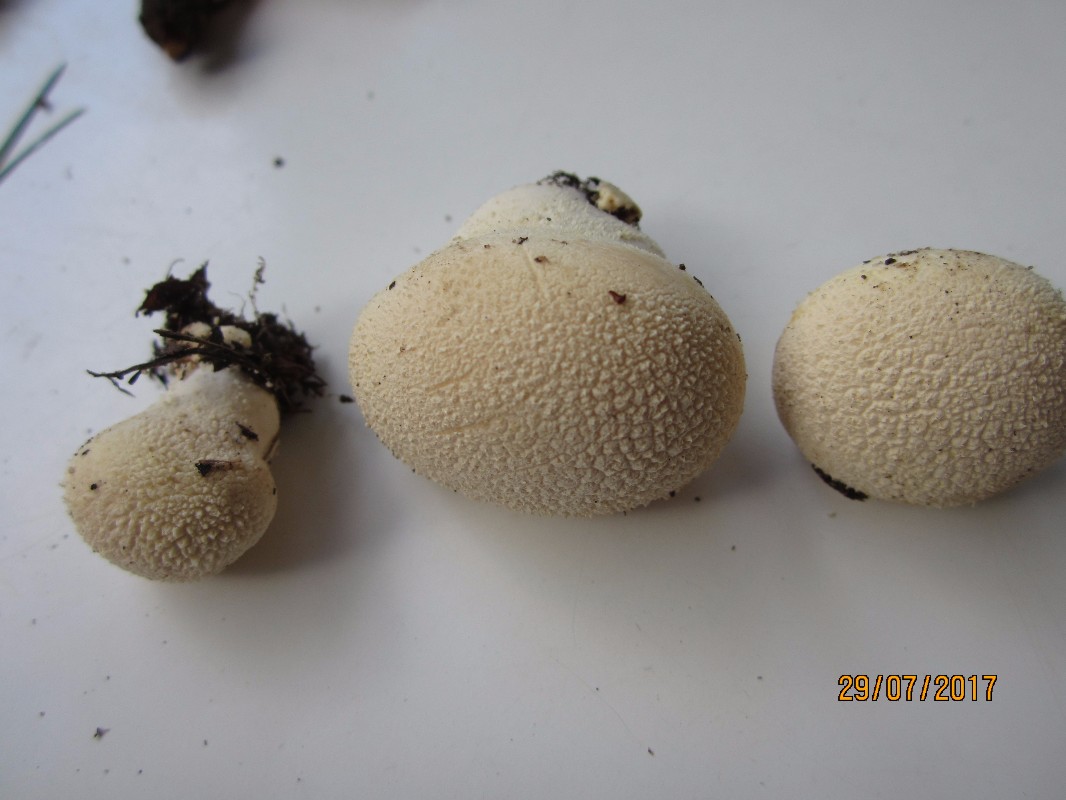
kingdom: Fungi
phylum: Basidiomycota
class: Agaricomycetes
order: Agaricales
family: Lycoperdaceae
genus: Lycoperdon
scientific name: Lycoperdon pratense
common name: flad støvbold
